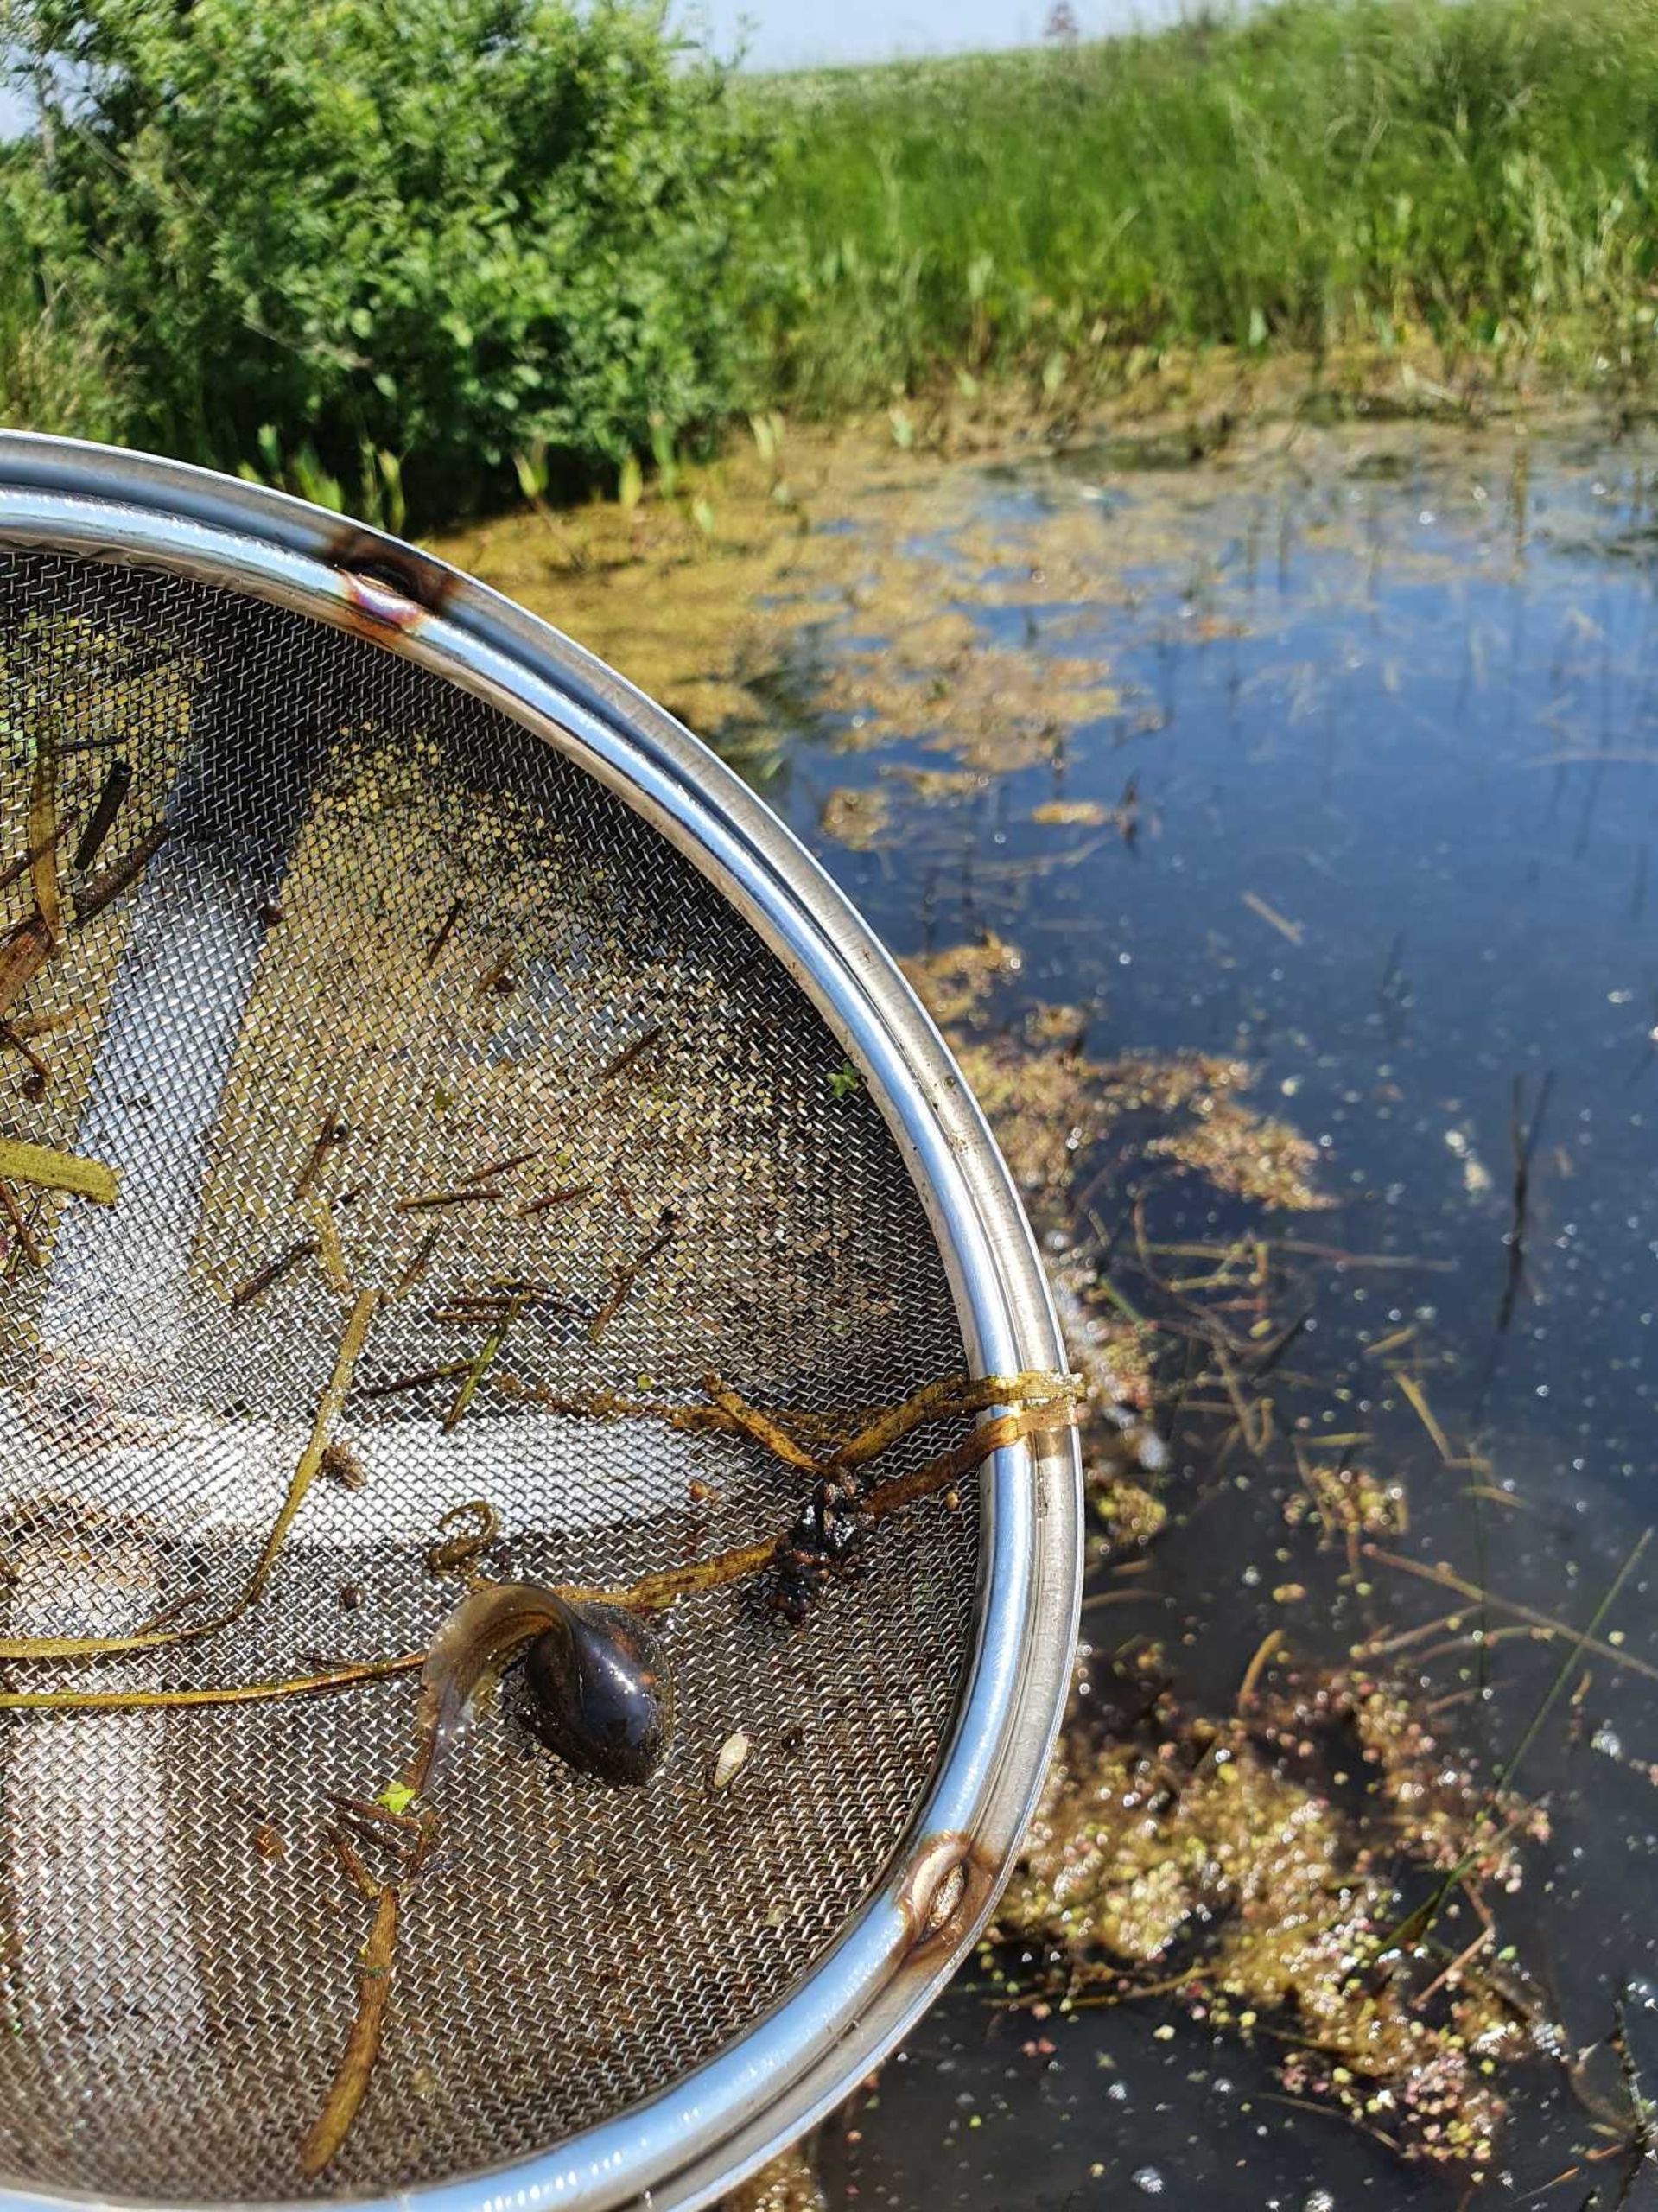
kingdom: Animalia
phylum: Chordata
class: Amphibia
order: Anura
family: Pelobatidae
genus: Pelobates
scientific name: Pelobates fuscus
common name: Løgfrø
